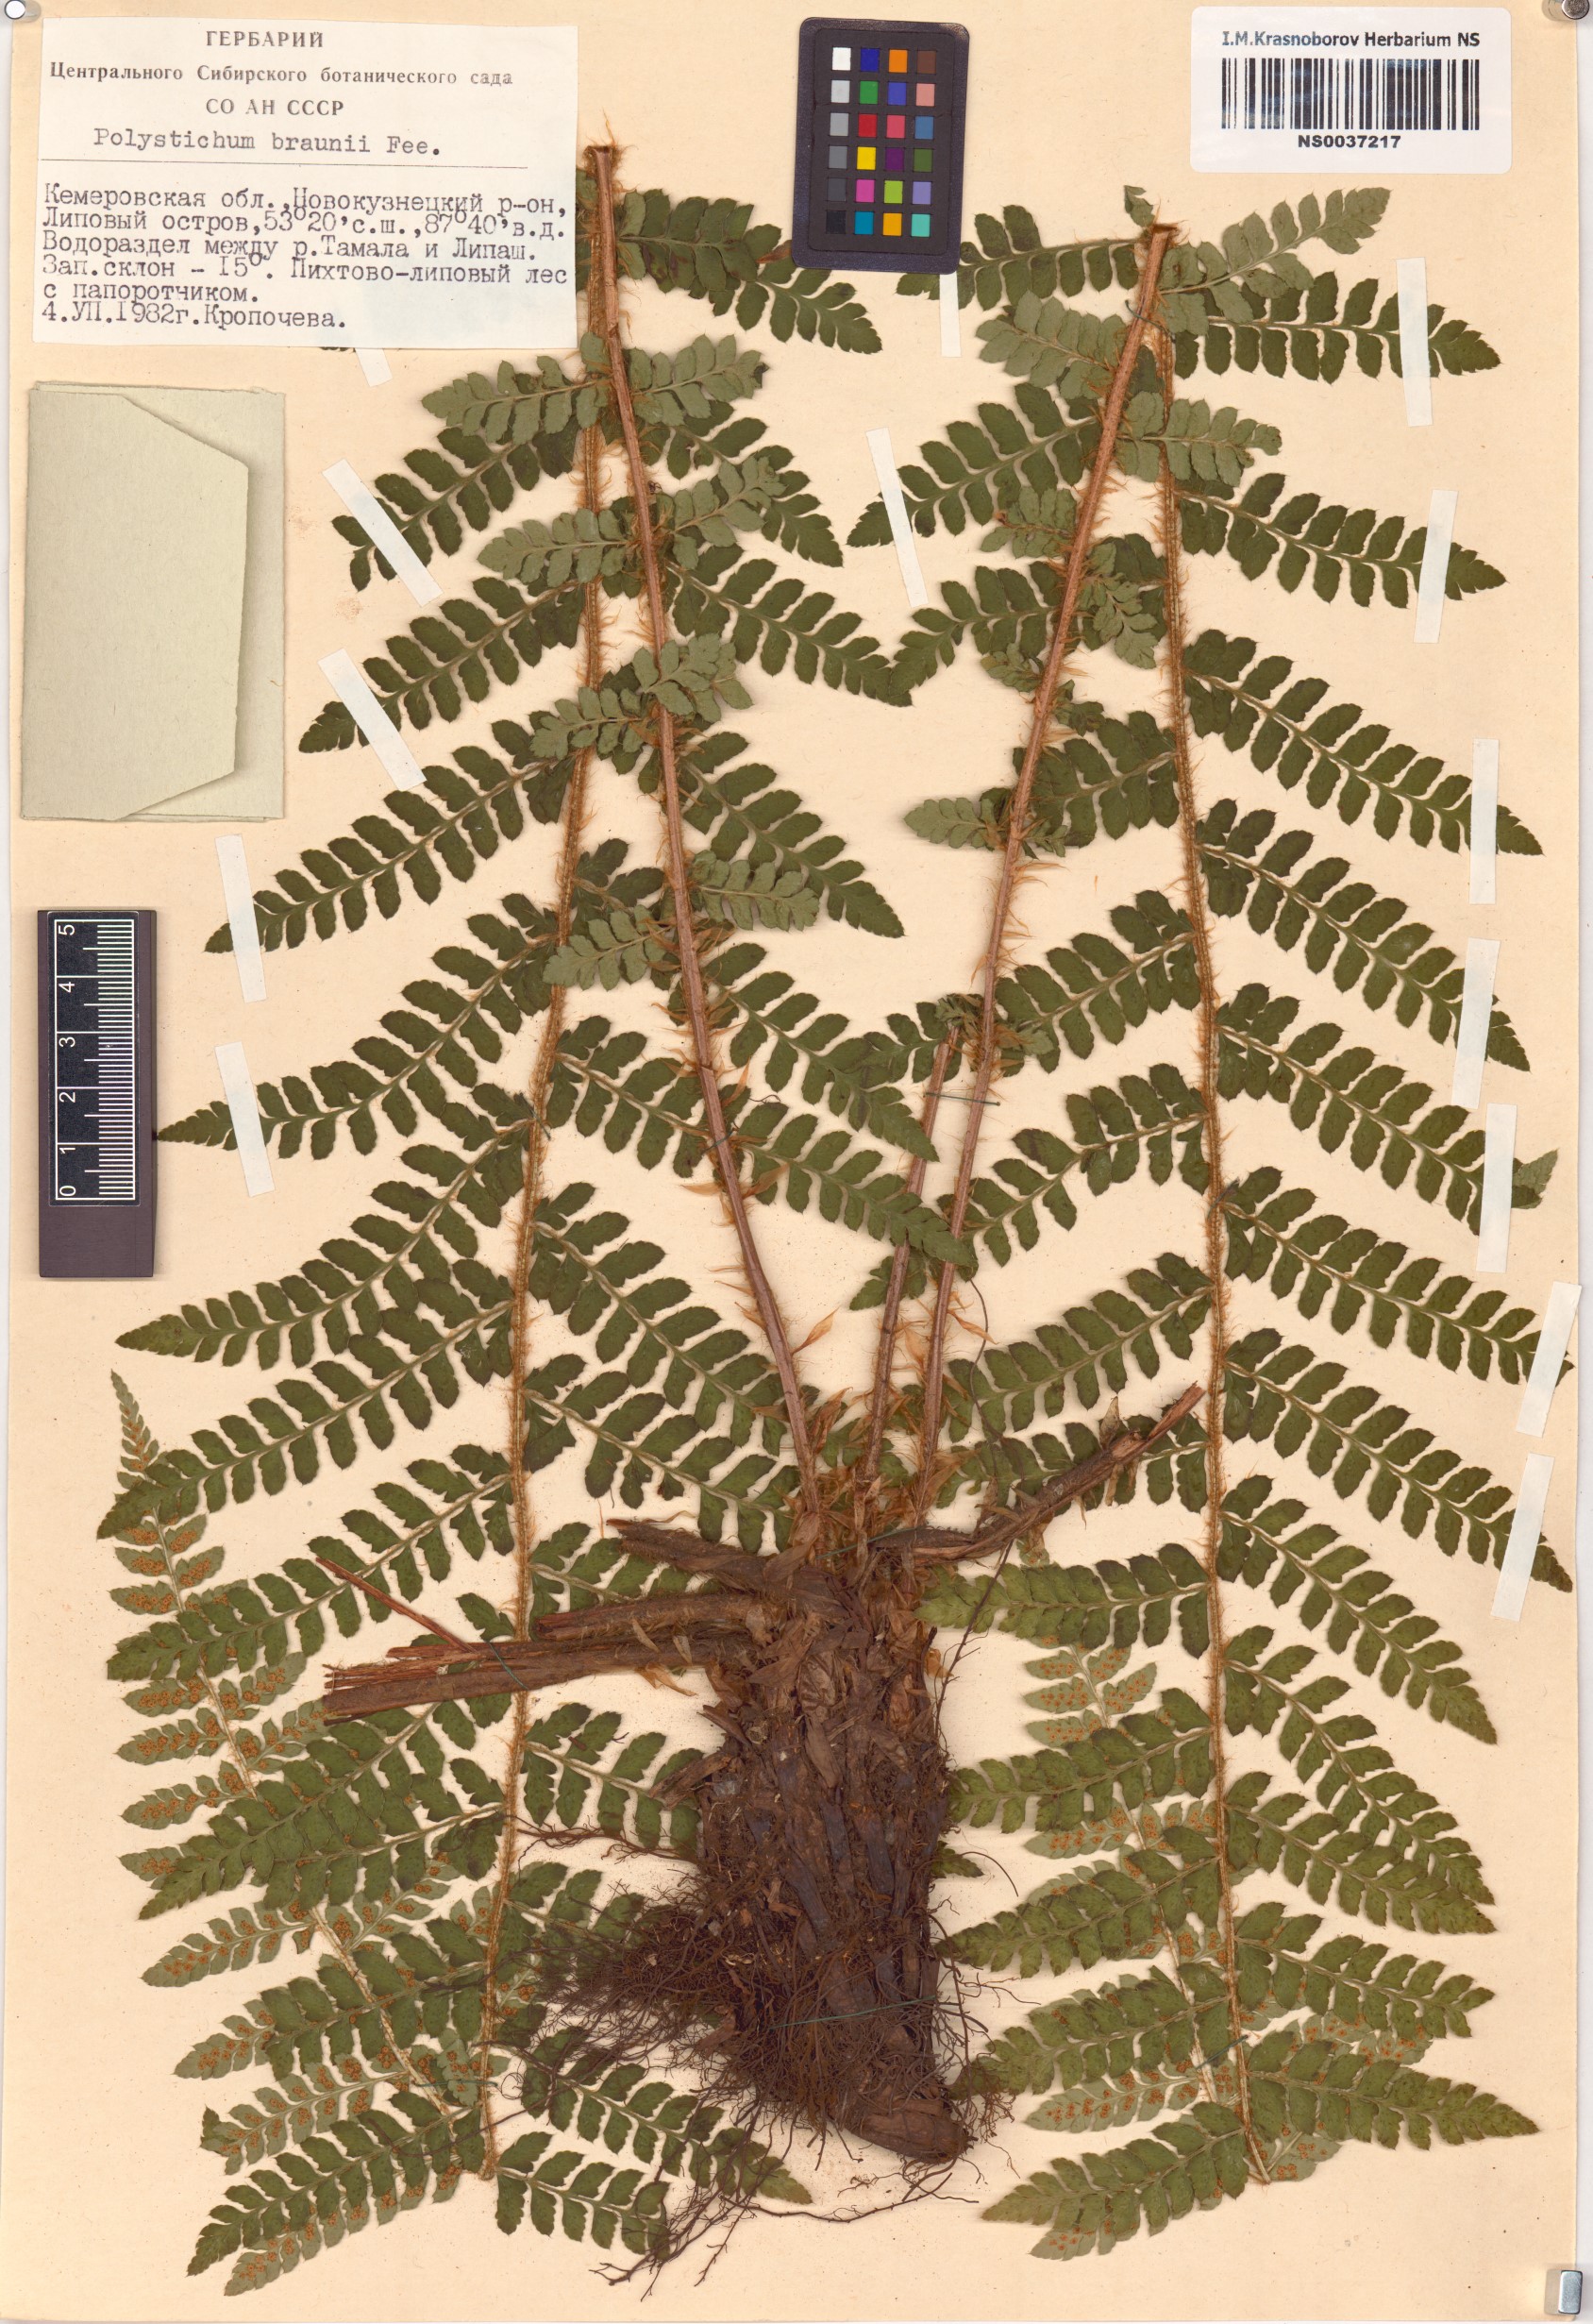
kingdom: Plantae
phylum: Tracheophyta
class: Polypodiopsida
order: Polypodiales
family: Dryopteridaceae
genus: Polystichum
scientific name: Polystichum braunii
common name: Braun's holly fern
